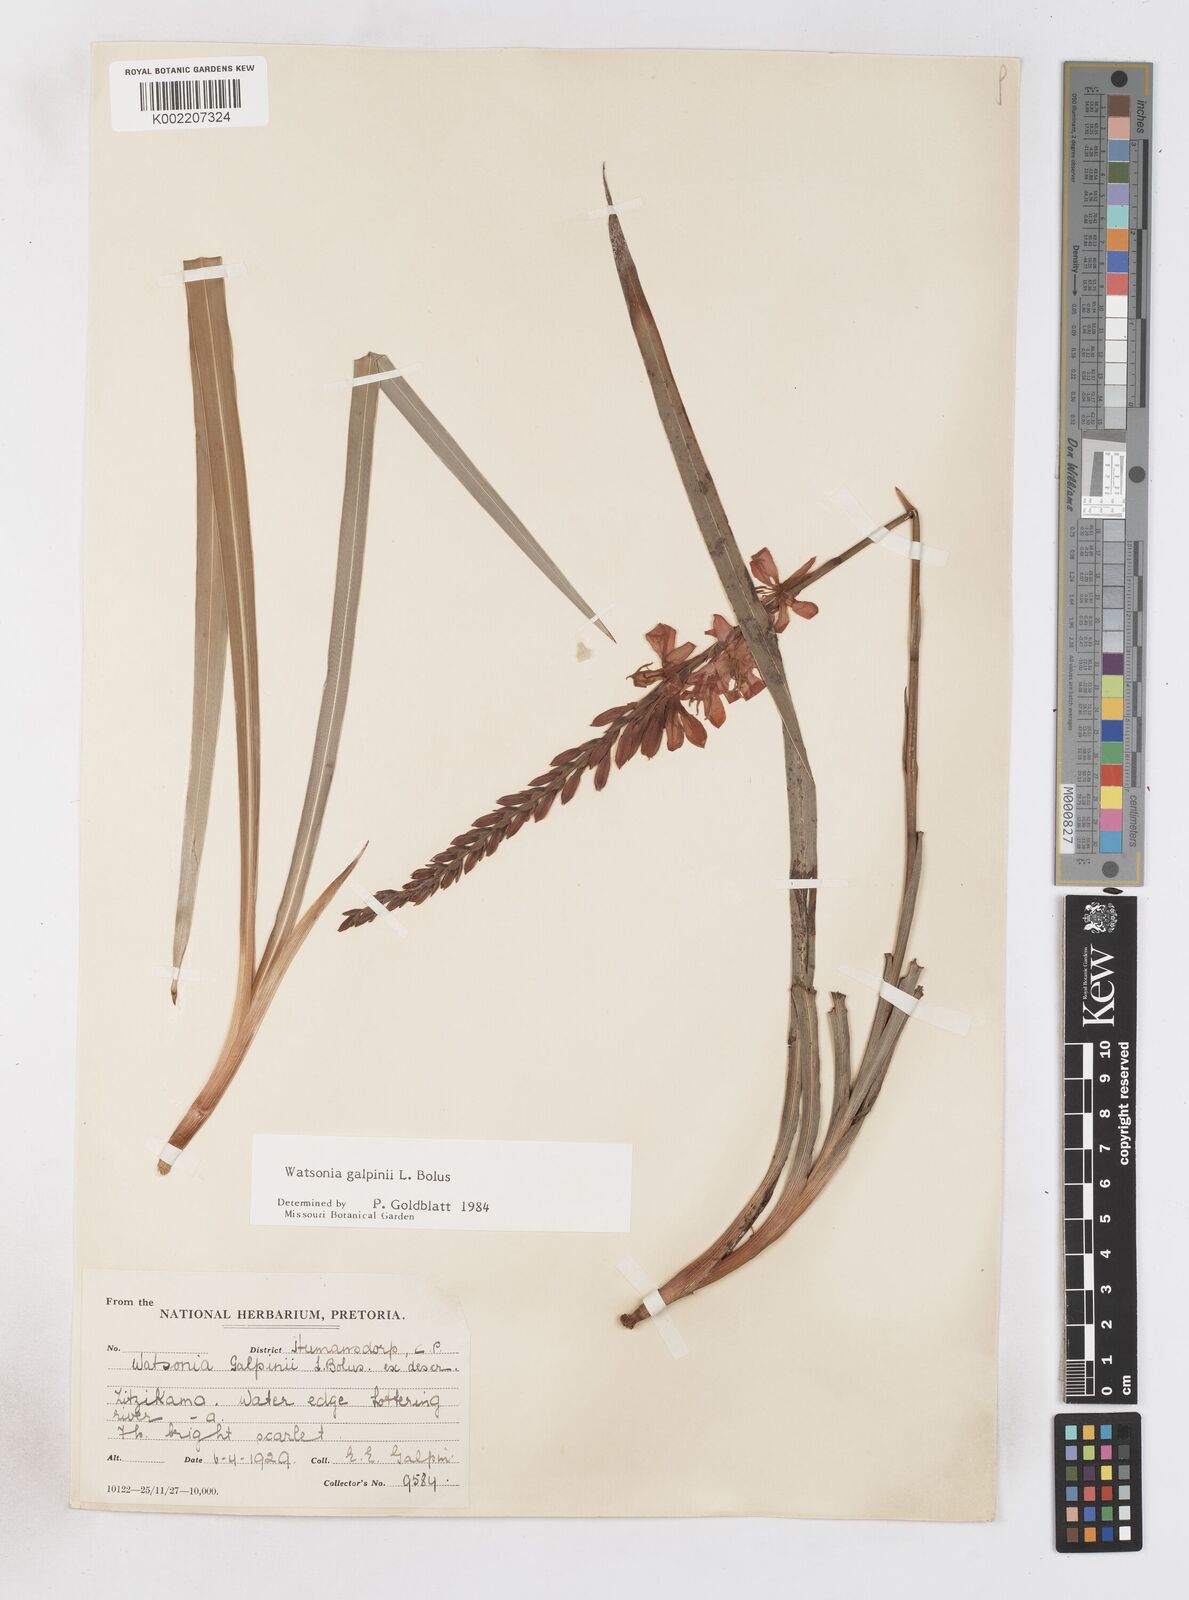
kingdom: Plantae
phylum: Tracheophyta
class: Liliopsida
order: Asparagales
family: Iridaceae
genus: Watsonia
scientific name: Watsonia galpinii
